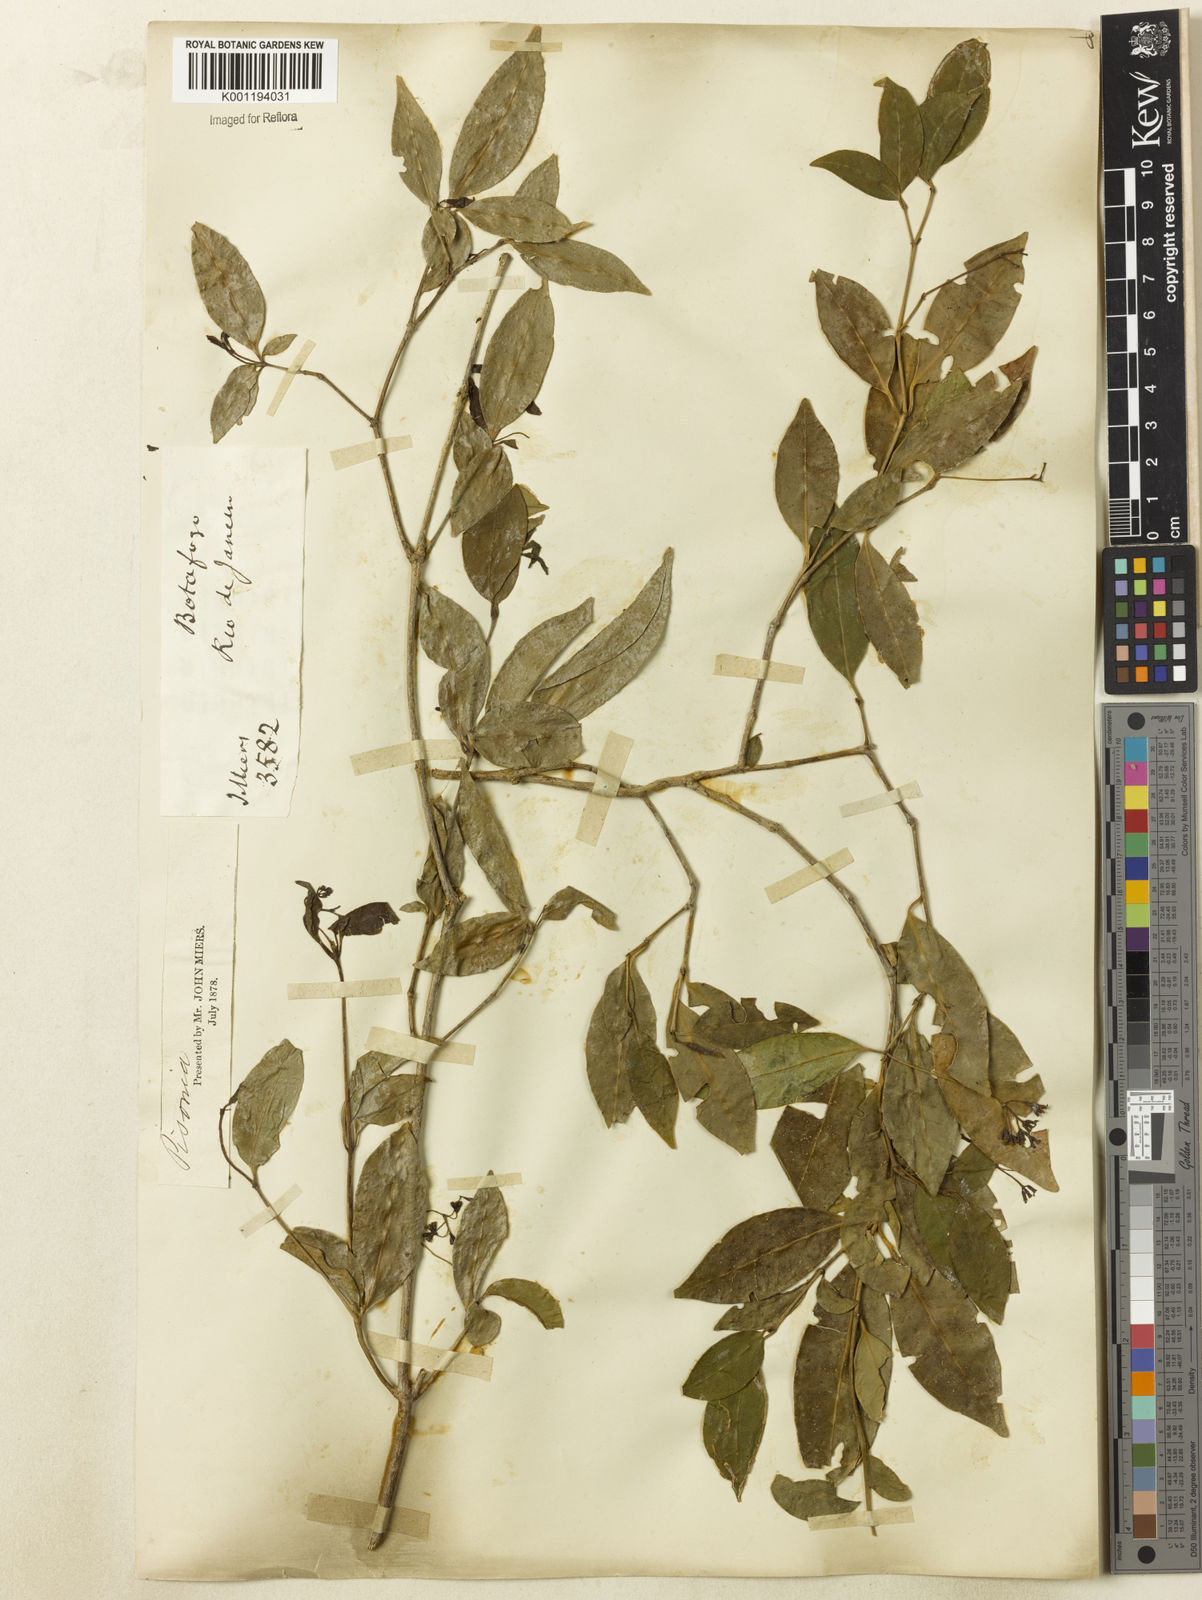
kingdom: Plantae
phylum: Tracheophyta
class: Magnoliopsida
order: Caryophyllales
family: Nyctaginaceae
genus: Guapira
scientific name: Guapira
